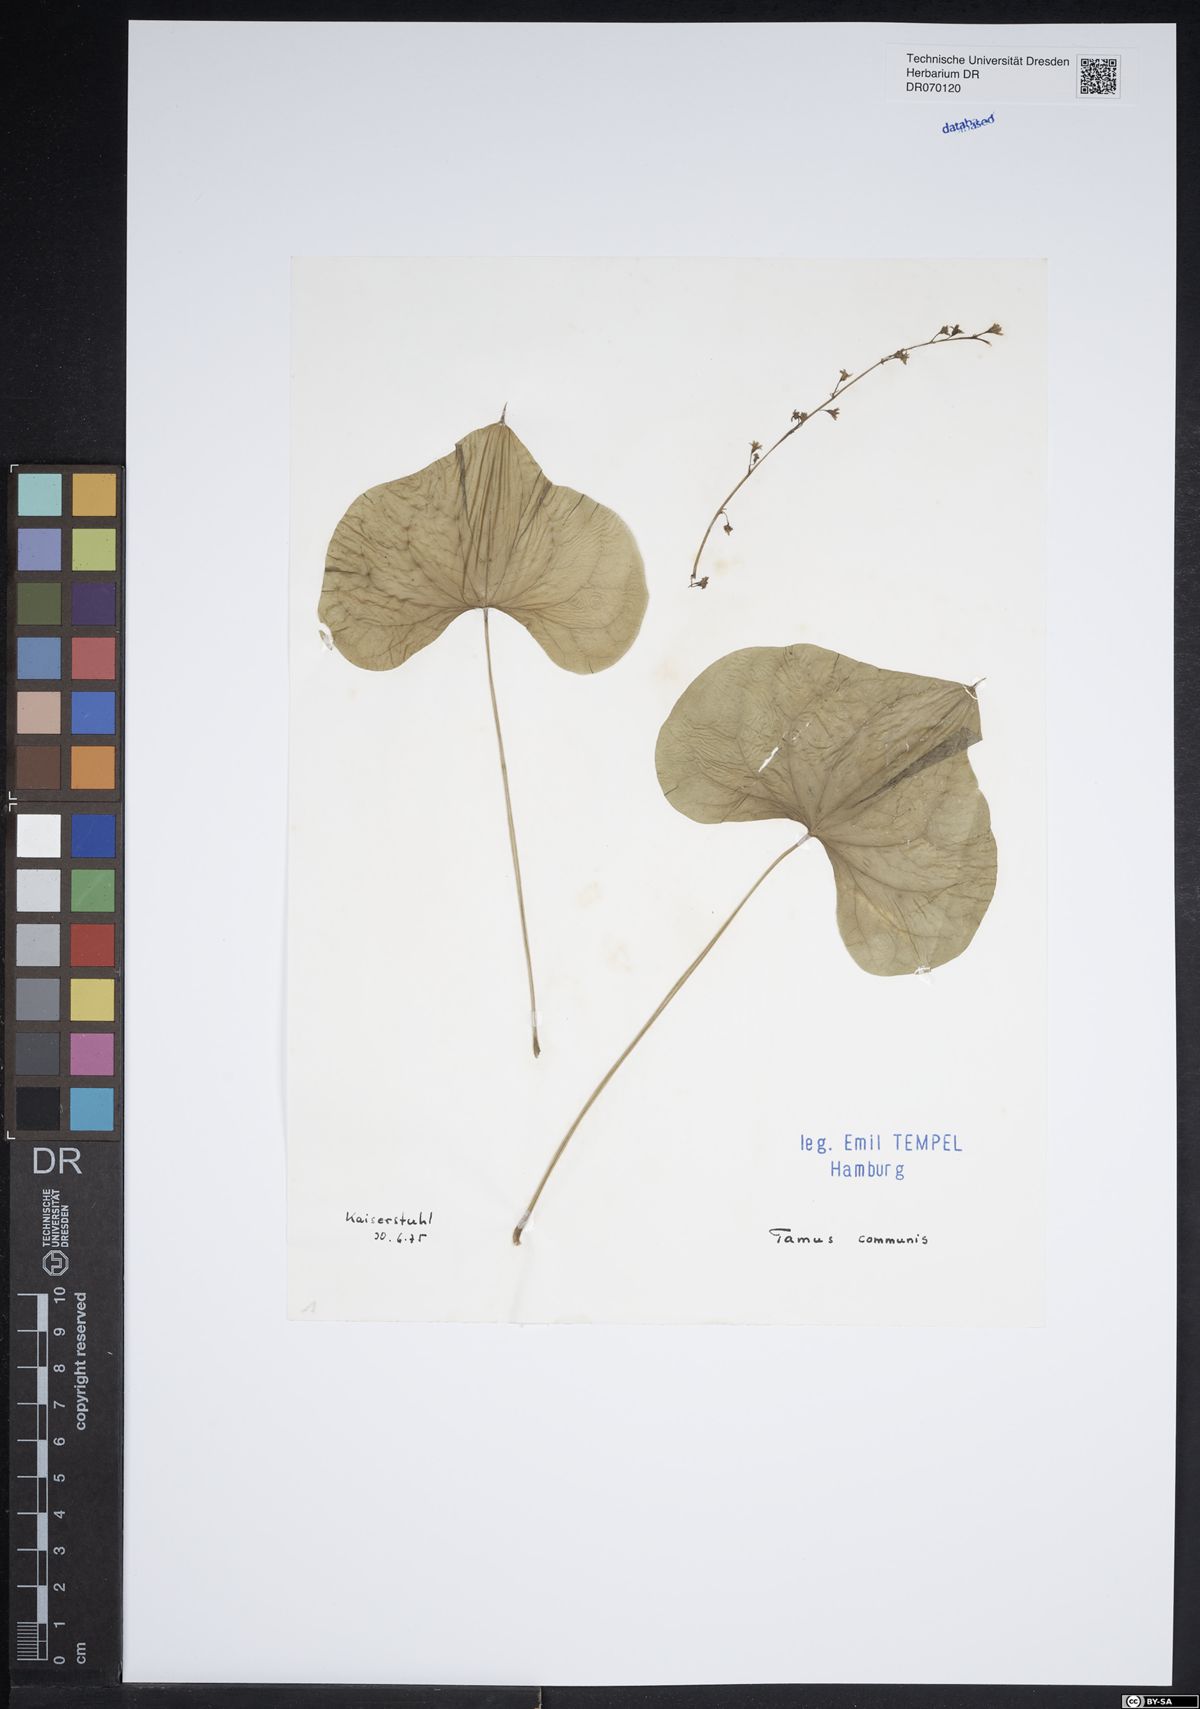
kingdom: Plantae
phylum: Tracheophyta
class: Liliopsida
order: Dioscoreales
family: Dioscoreaceae
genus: Dioscorea
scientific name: Dioscorea communis
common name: Black-bindweed
